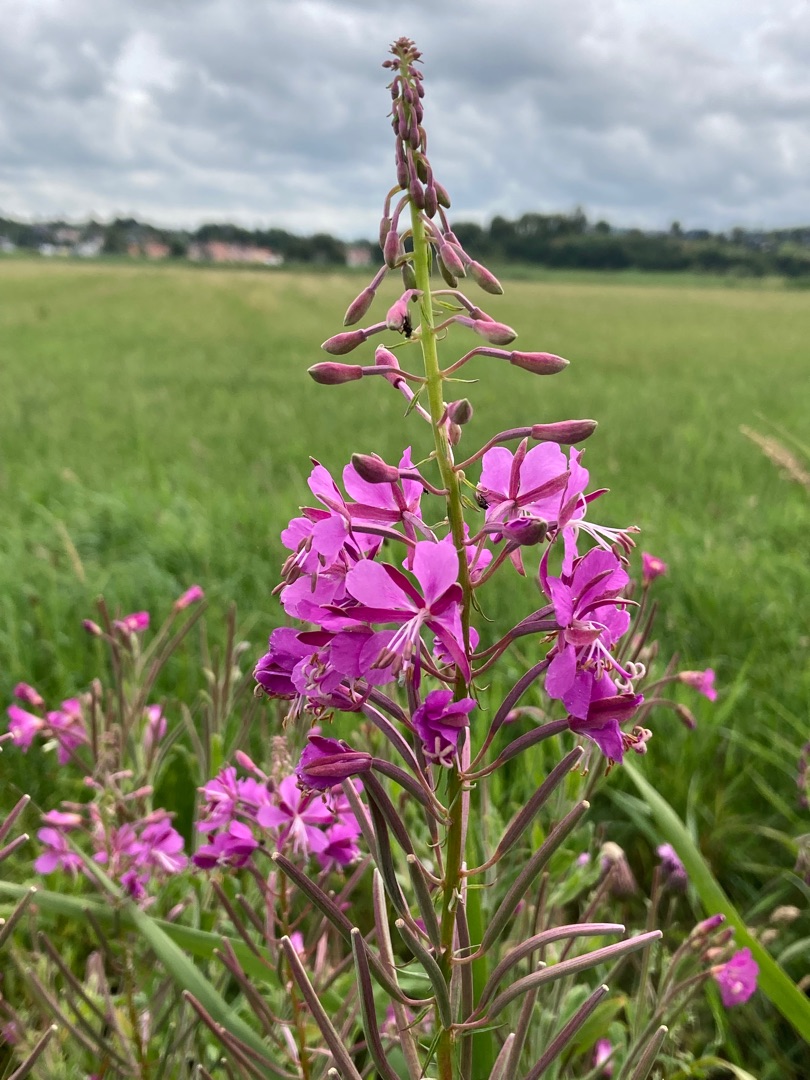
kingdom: Plantae
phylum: Tracheophyta
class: Magnoliopsida
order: Myrtales
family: Onagraceae
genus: Chamaenerion
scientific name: Chamaenerion angustifolium
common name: Gederams
